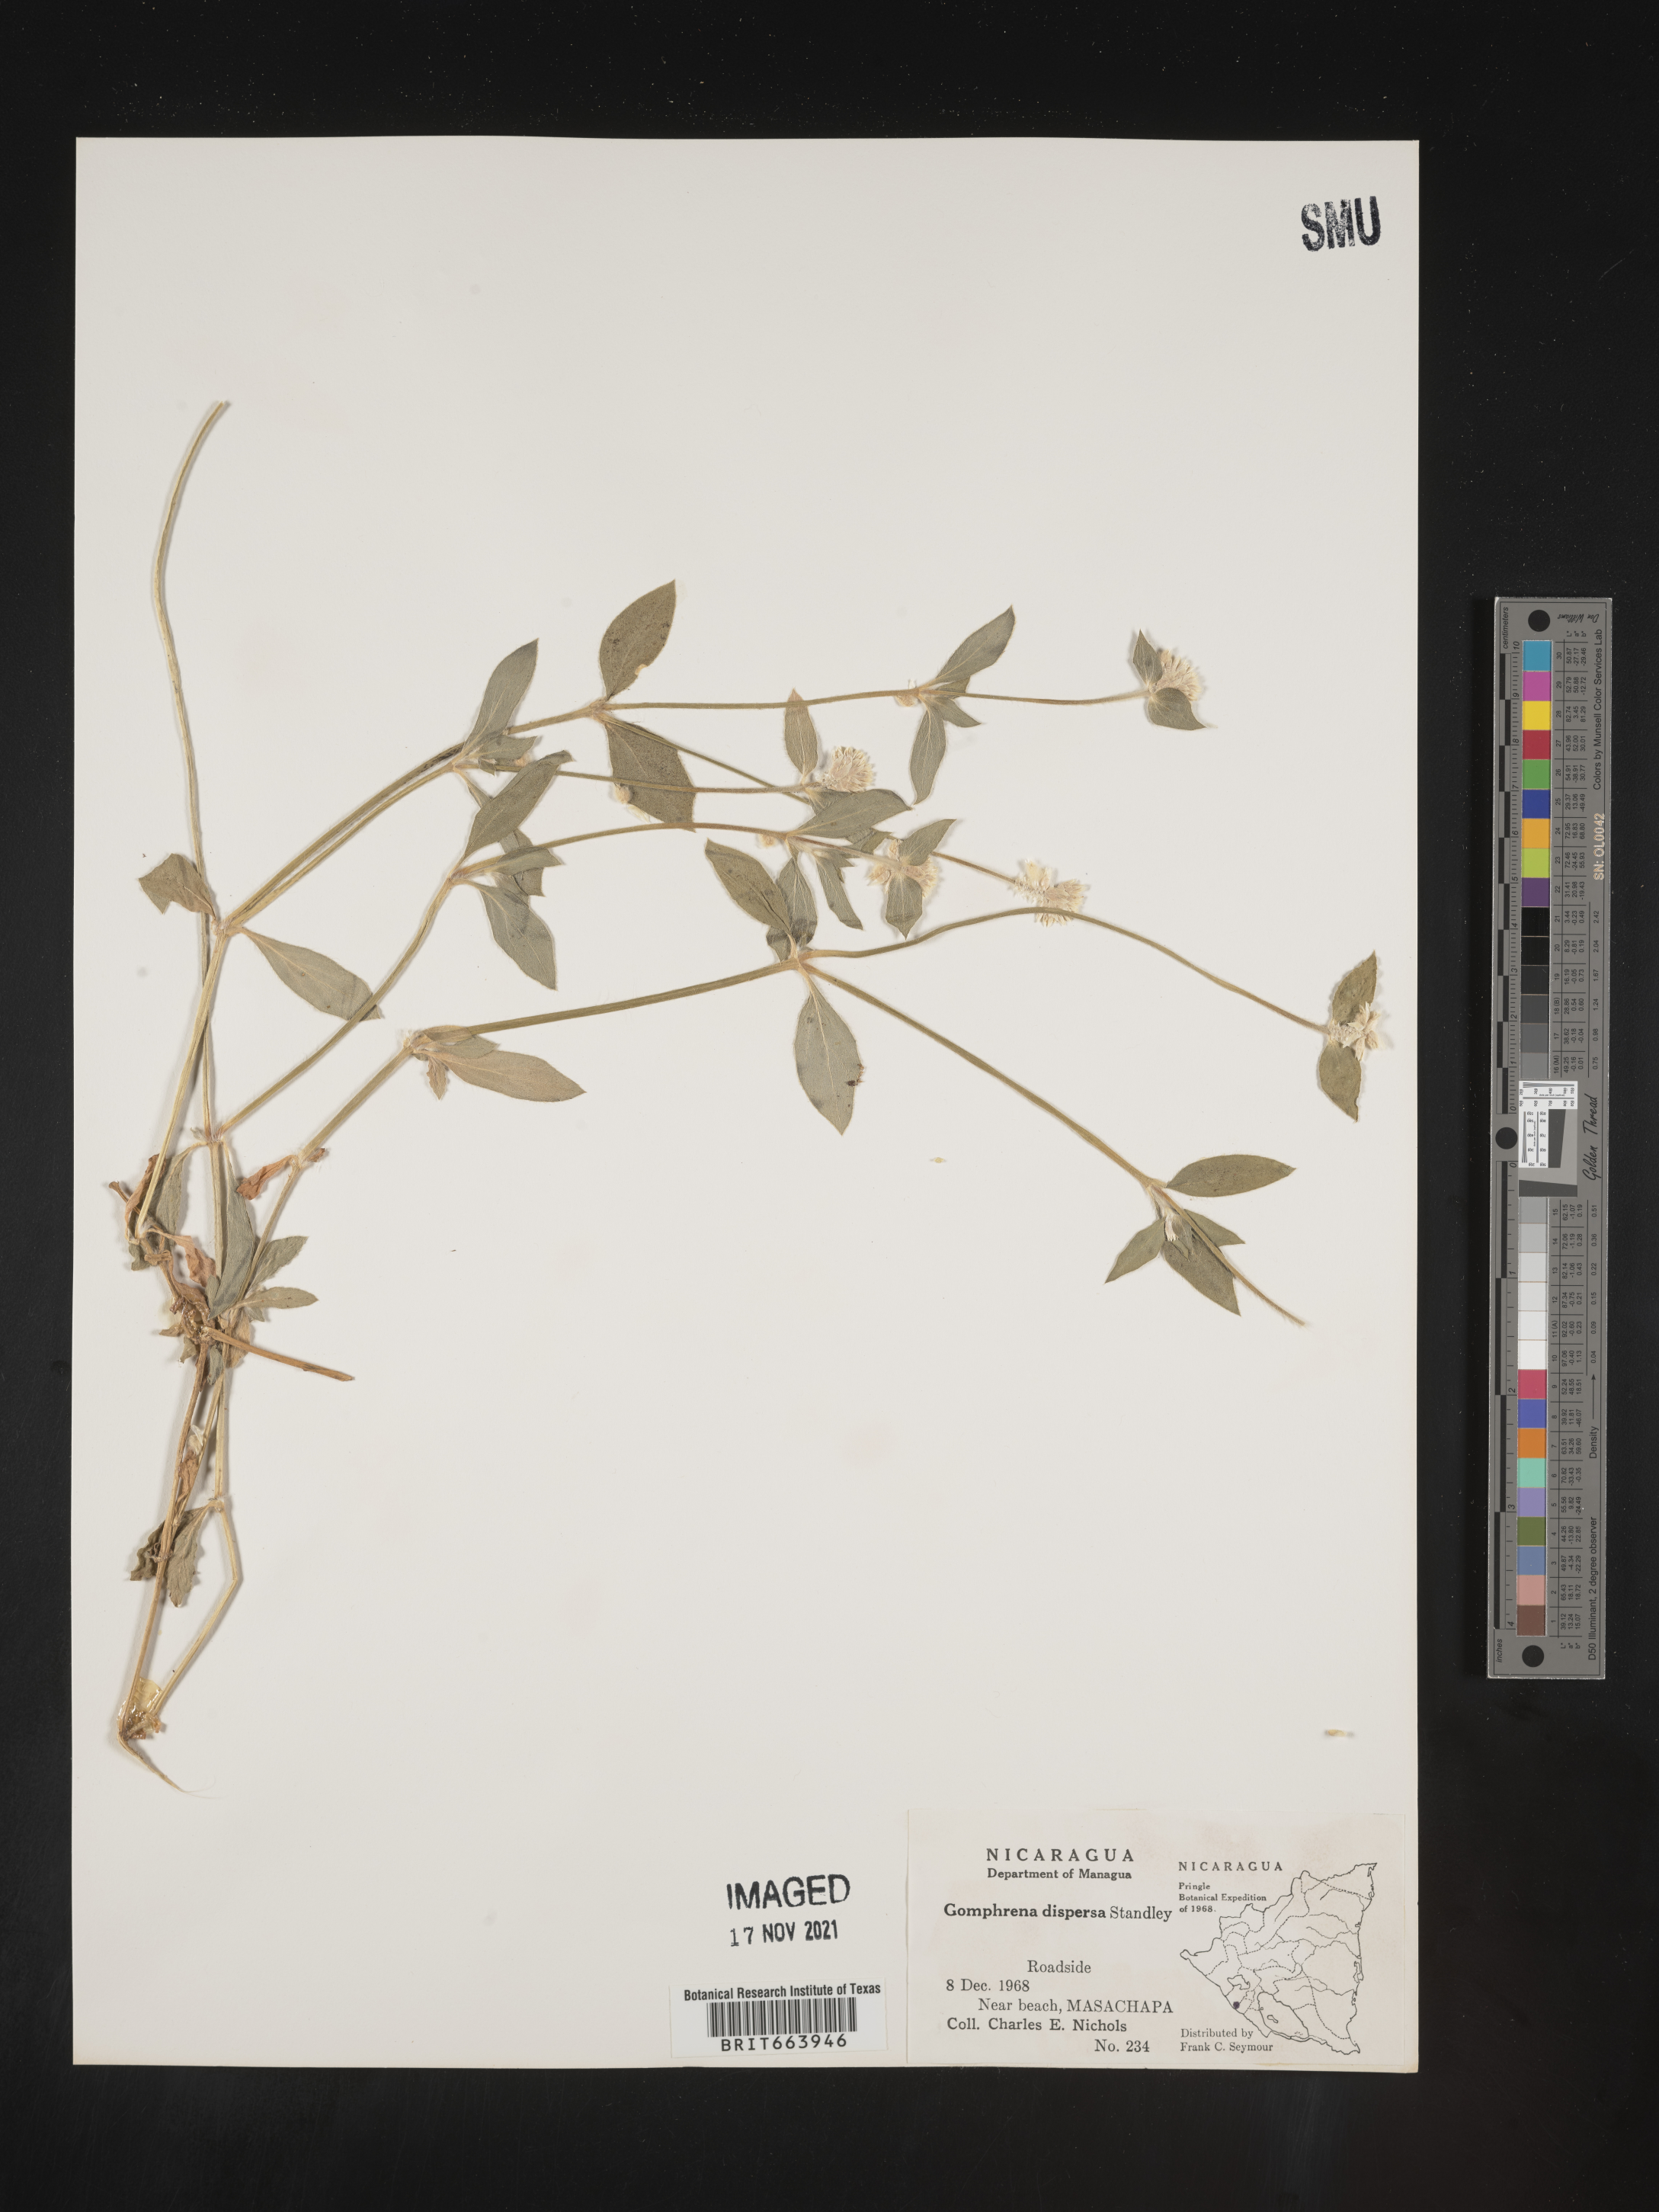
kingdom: Plantae
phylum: Tracheophyta
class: Magnoliopsida
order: Caryophyllales
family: Amaranthaceae
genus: Gomphrena
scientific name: Gomphrena
